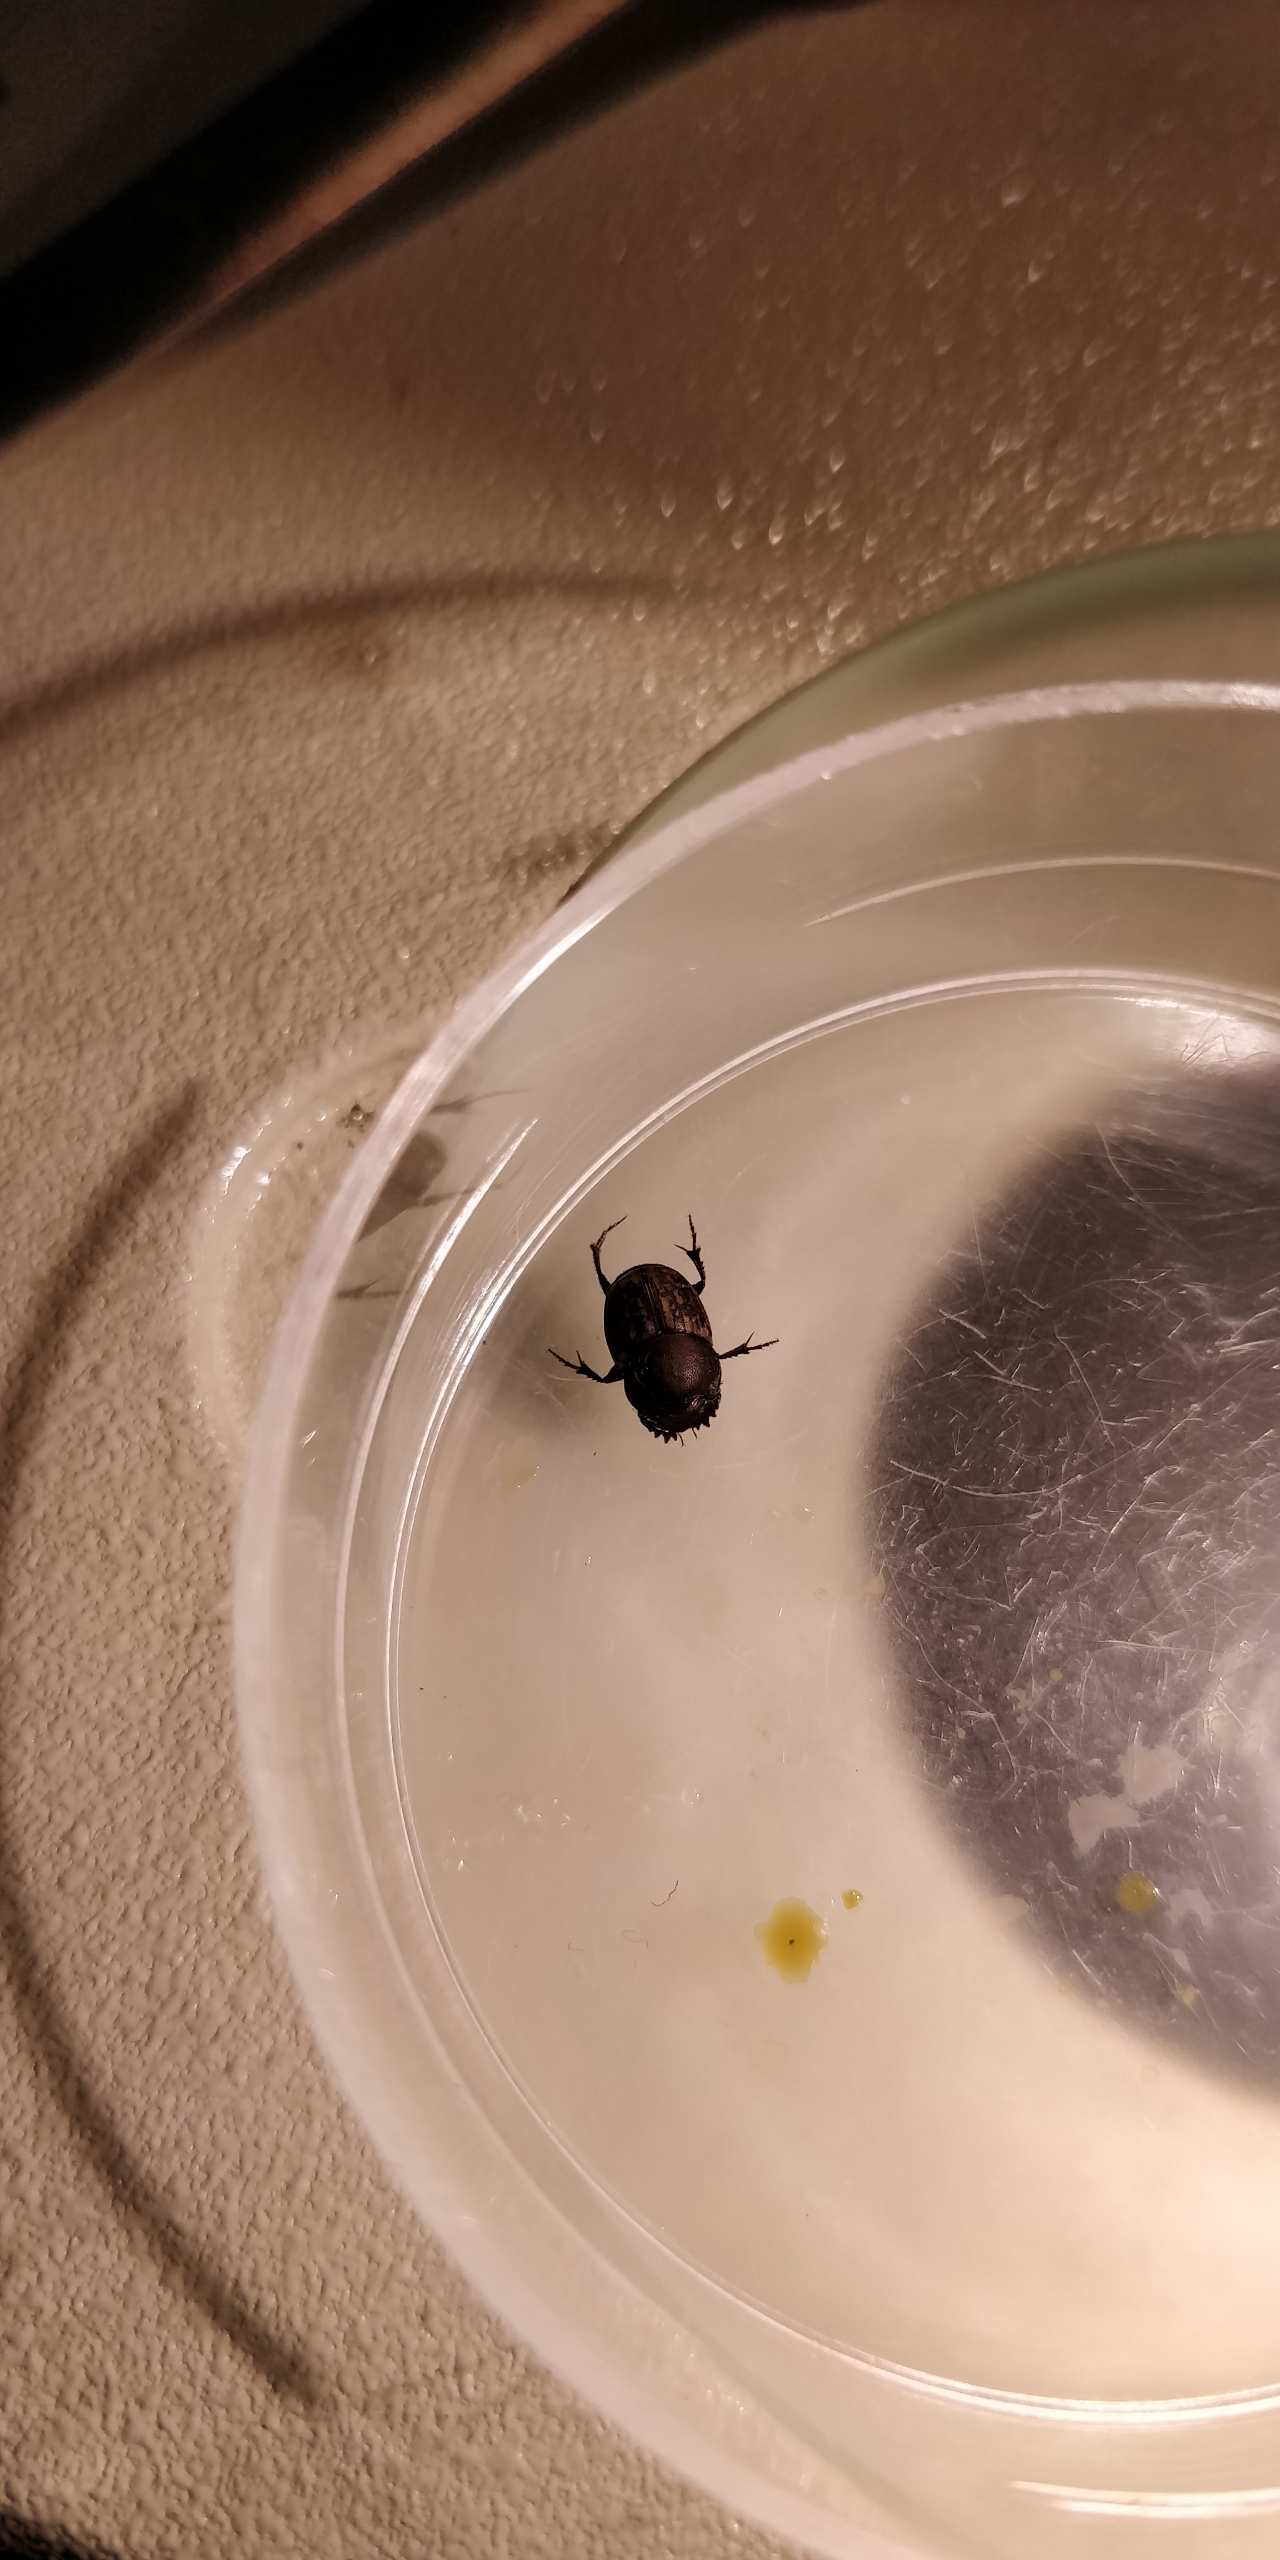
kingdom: Animalia
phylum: Arthropoda
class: Insecta
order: Coleoptera
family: Scarabaeidae
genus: Onthophagus
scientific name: Onthophagus similis
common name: Lille møggraver
